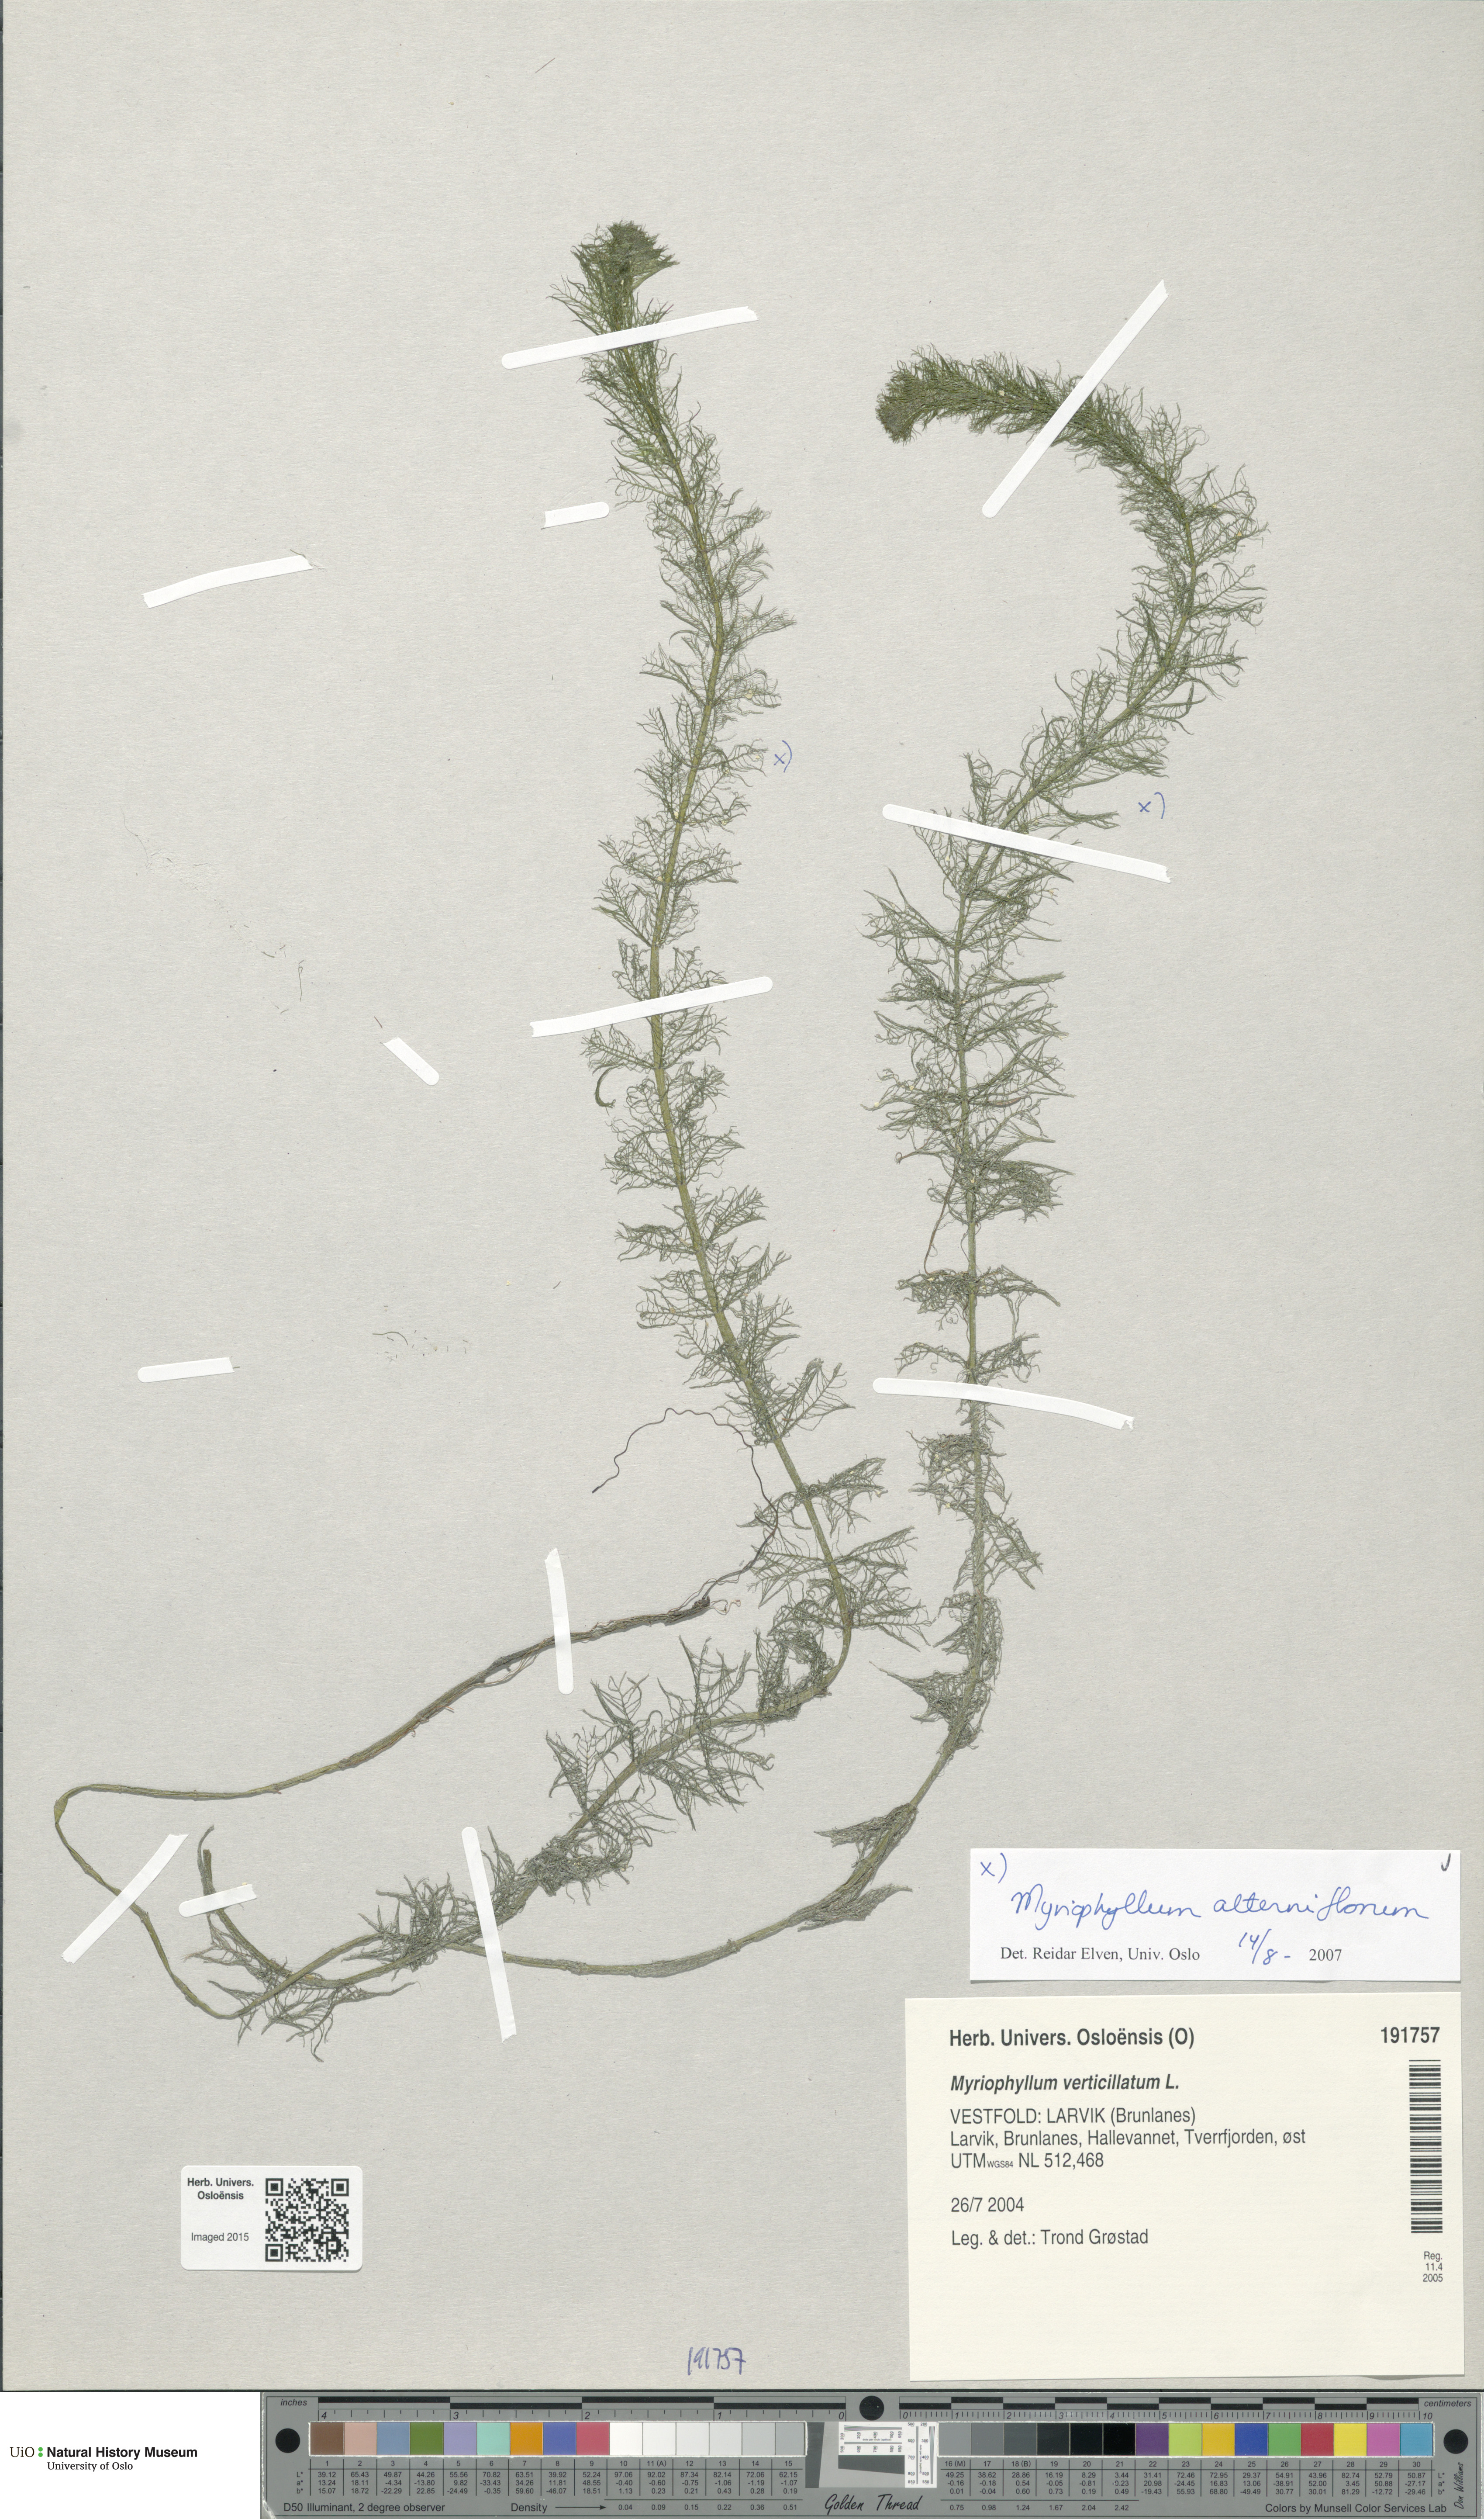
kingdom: Plantae
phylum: Tracheophyta
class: Magnoliopsida
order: Saxifragales
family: Haloragaceae
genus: Myriophyllum
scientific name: Myriophyllum alterniflorum
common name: Alternate water-milfoil
